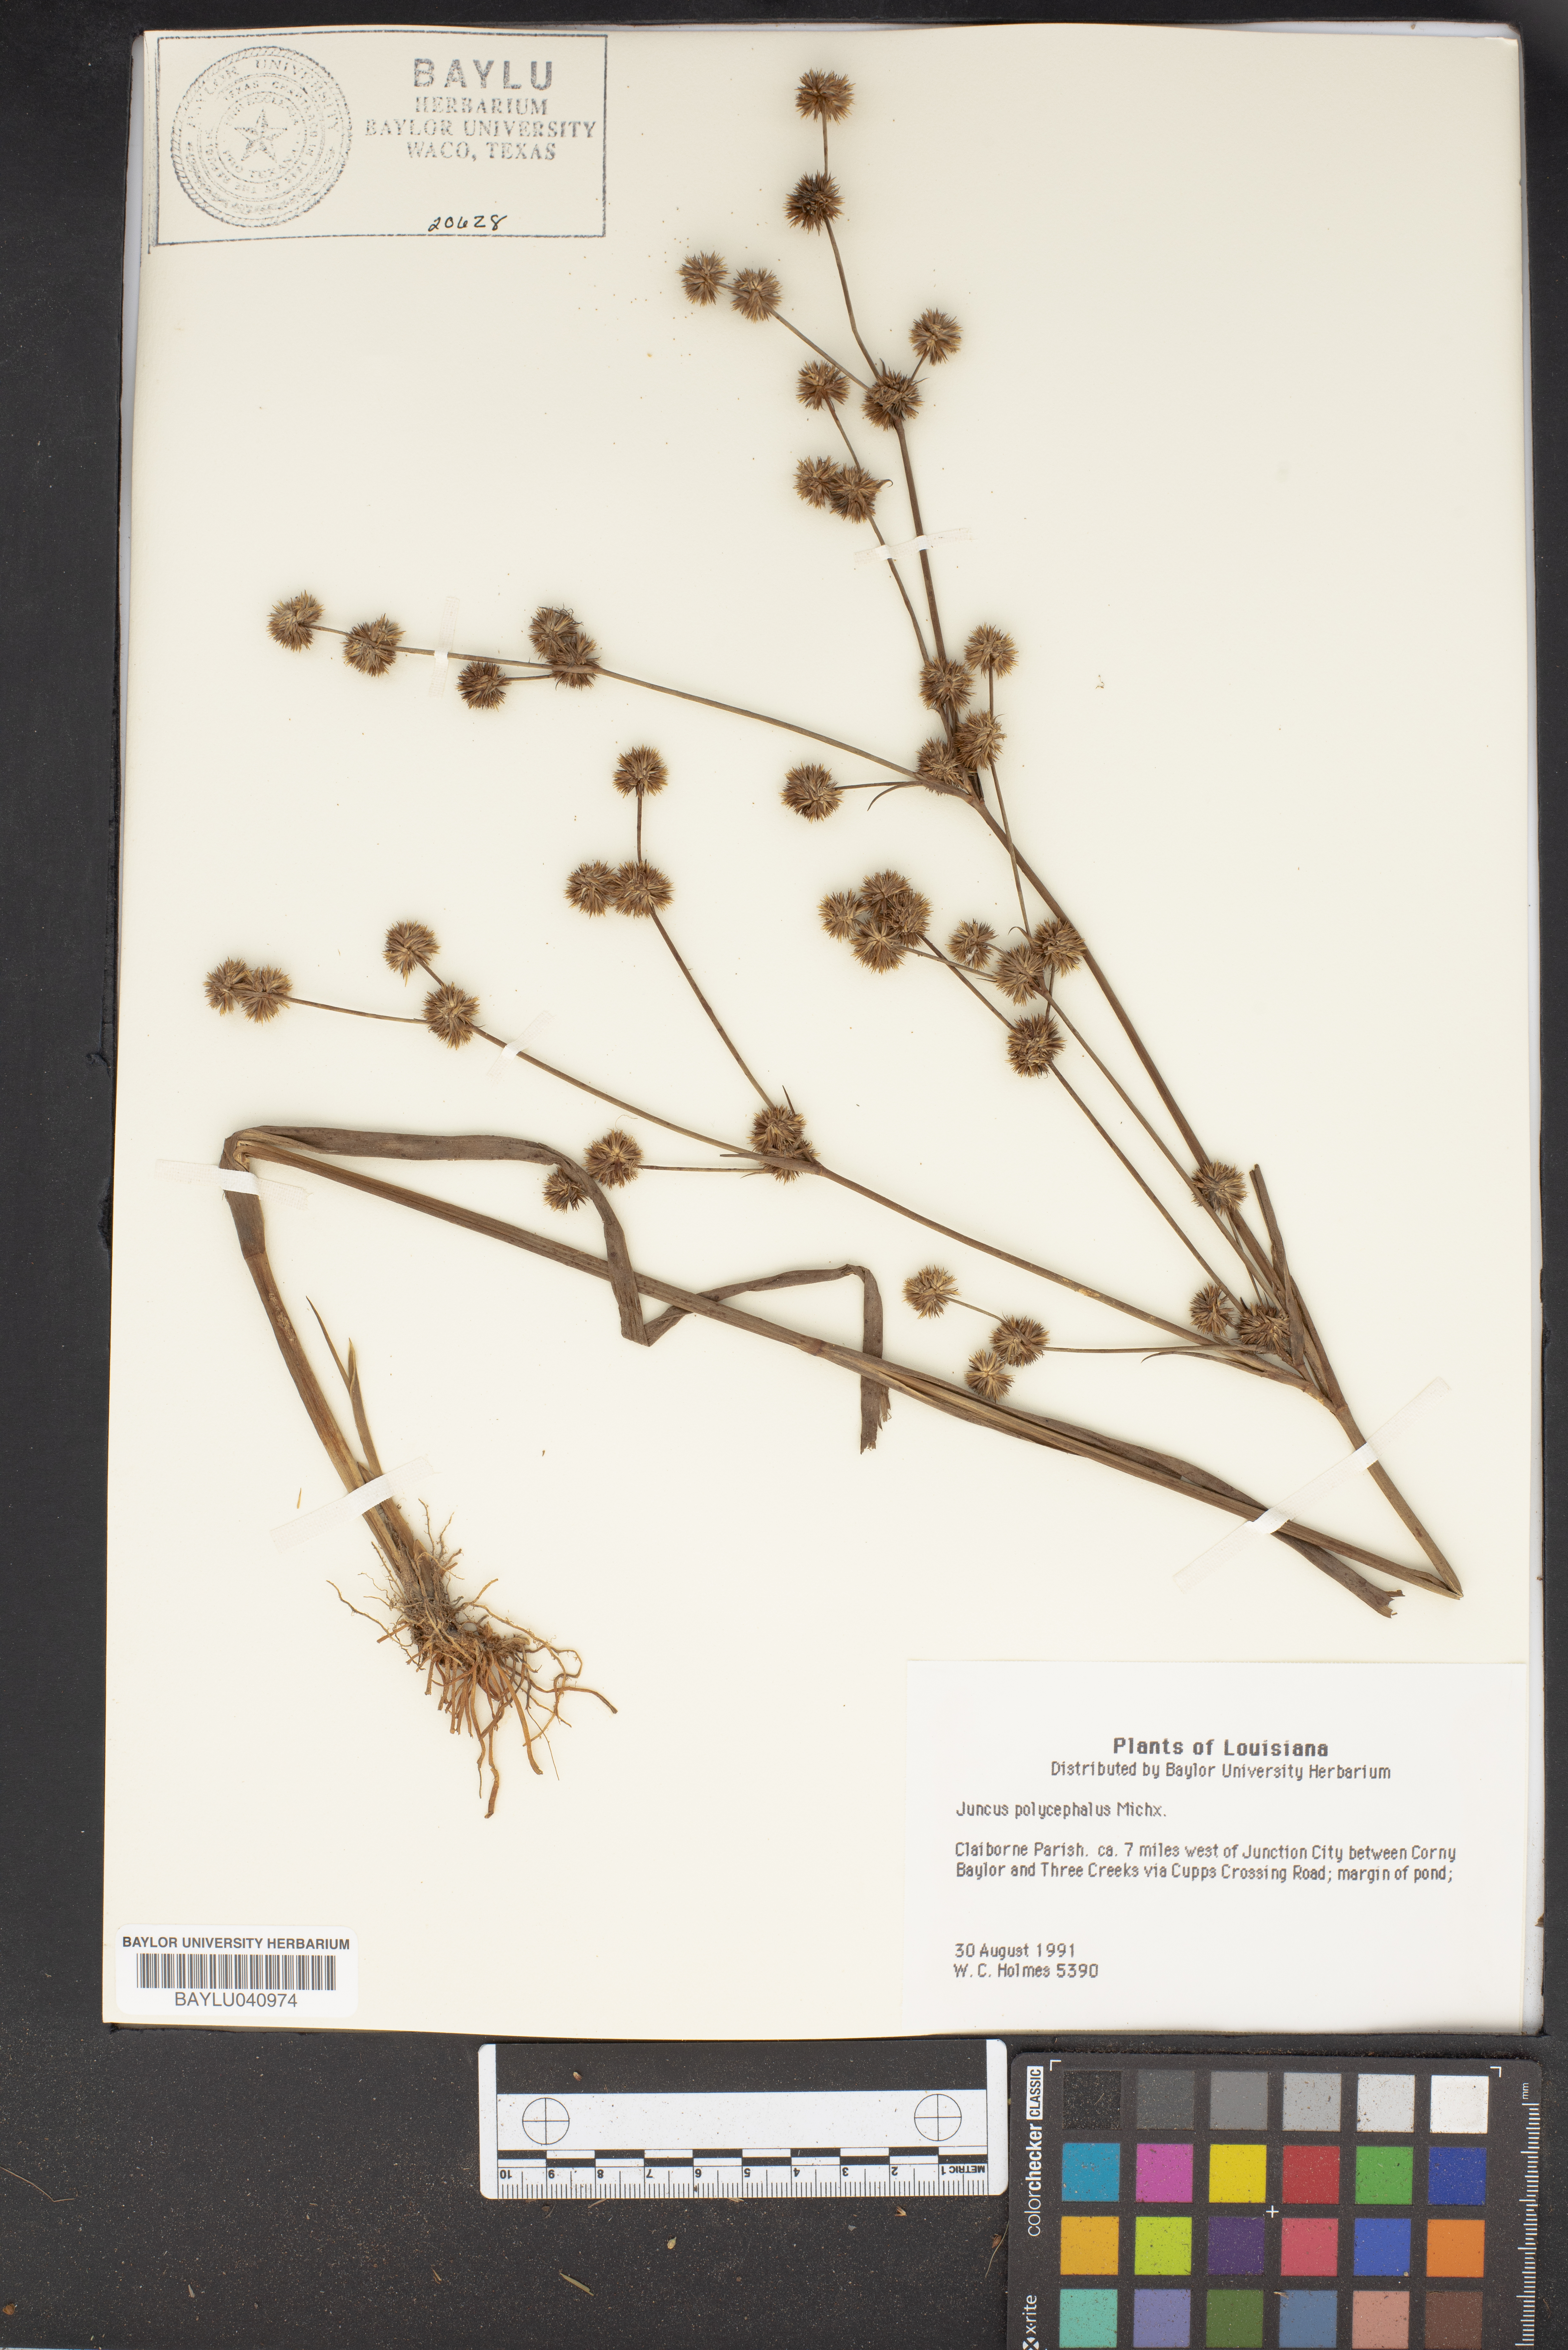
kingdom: Plantae
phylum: Tracheophyta
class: Liliopsida
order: Poales
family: Juncaceae
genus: Juncus
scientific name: Juncus polycephalus
